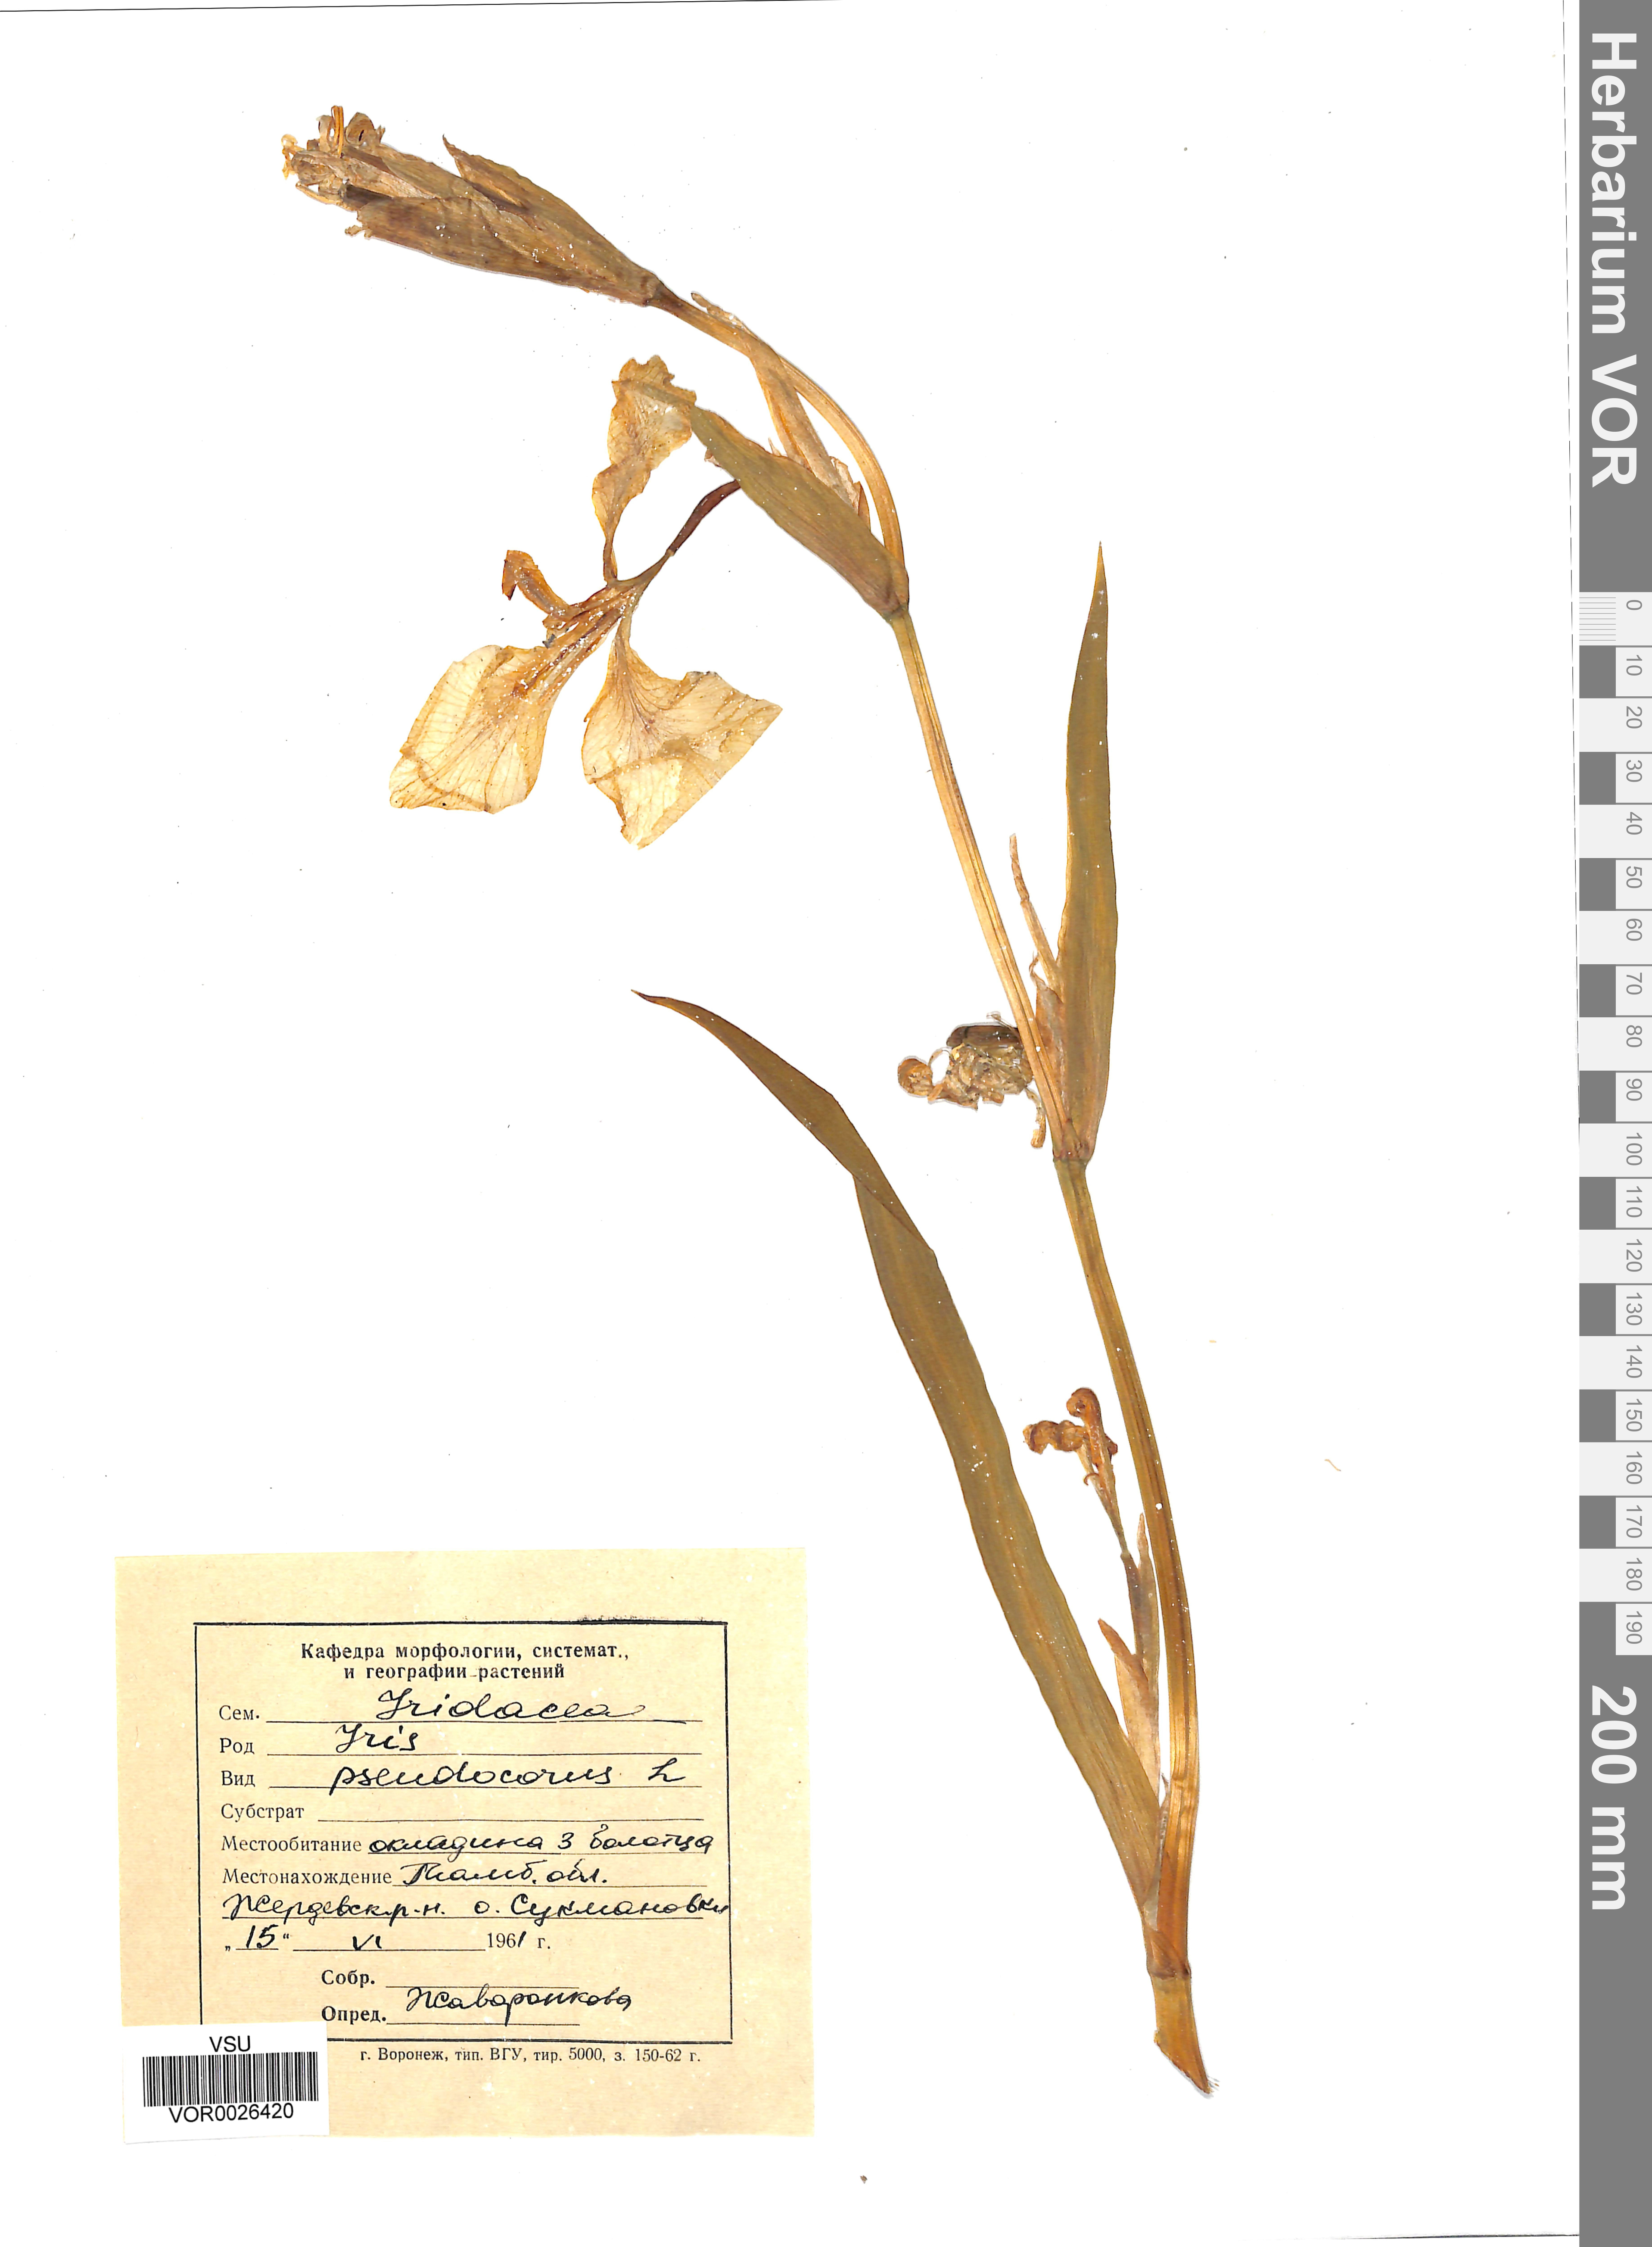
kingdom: Plantae
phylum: Tracheophyta
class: Liliopsida
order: Asparagales
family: Iridaceae
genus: Iris
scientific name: Iris pseudacorus
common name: Yellow flag
